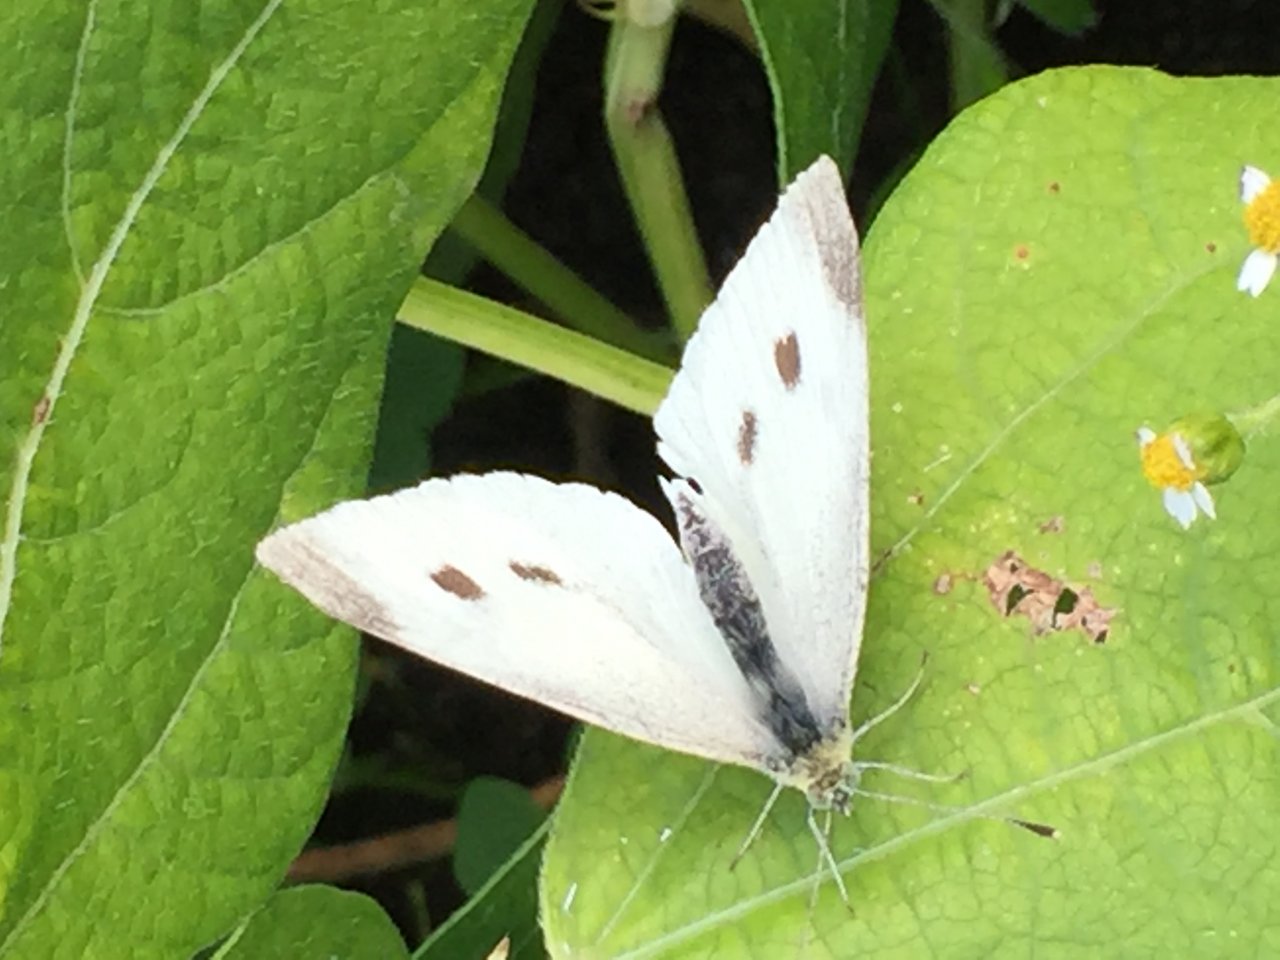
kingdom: Animalia
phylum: Arthropoda
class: Insecta
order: Lepidoptera
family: Pieridae
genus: Pieris
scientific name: Pieris rapae
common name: Cabbage White
